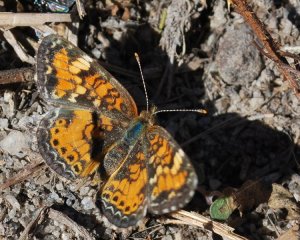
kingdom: Animalia
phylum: Arthropoda
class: Insecta
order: Lepidoptera
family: Nymphalidae
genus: Phyciodes
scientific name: Phyciodes phaon
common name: Phaon Crescent
